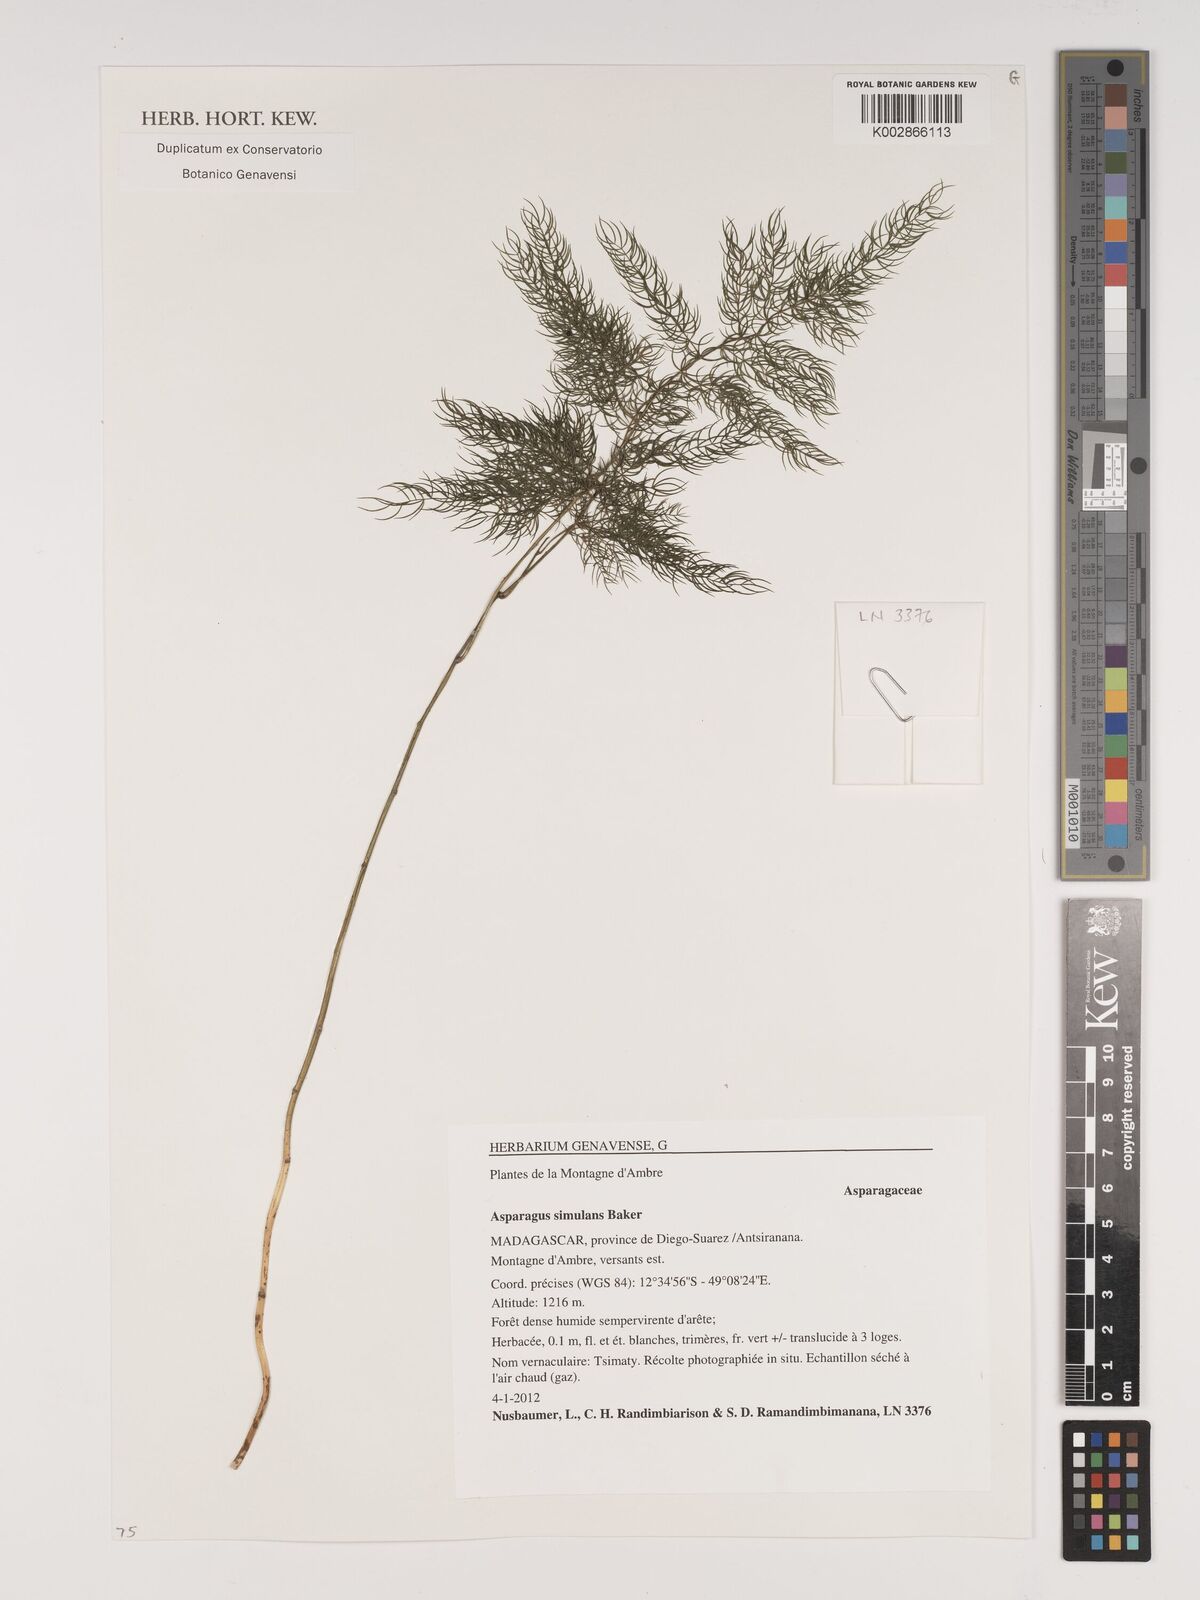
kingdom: Plantae
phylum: Tracheophyta
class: Liliopsida
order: Asparagales
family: Asparagaceae
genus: Asparagus
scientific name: Asparagus simulans
